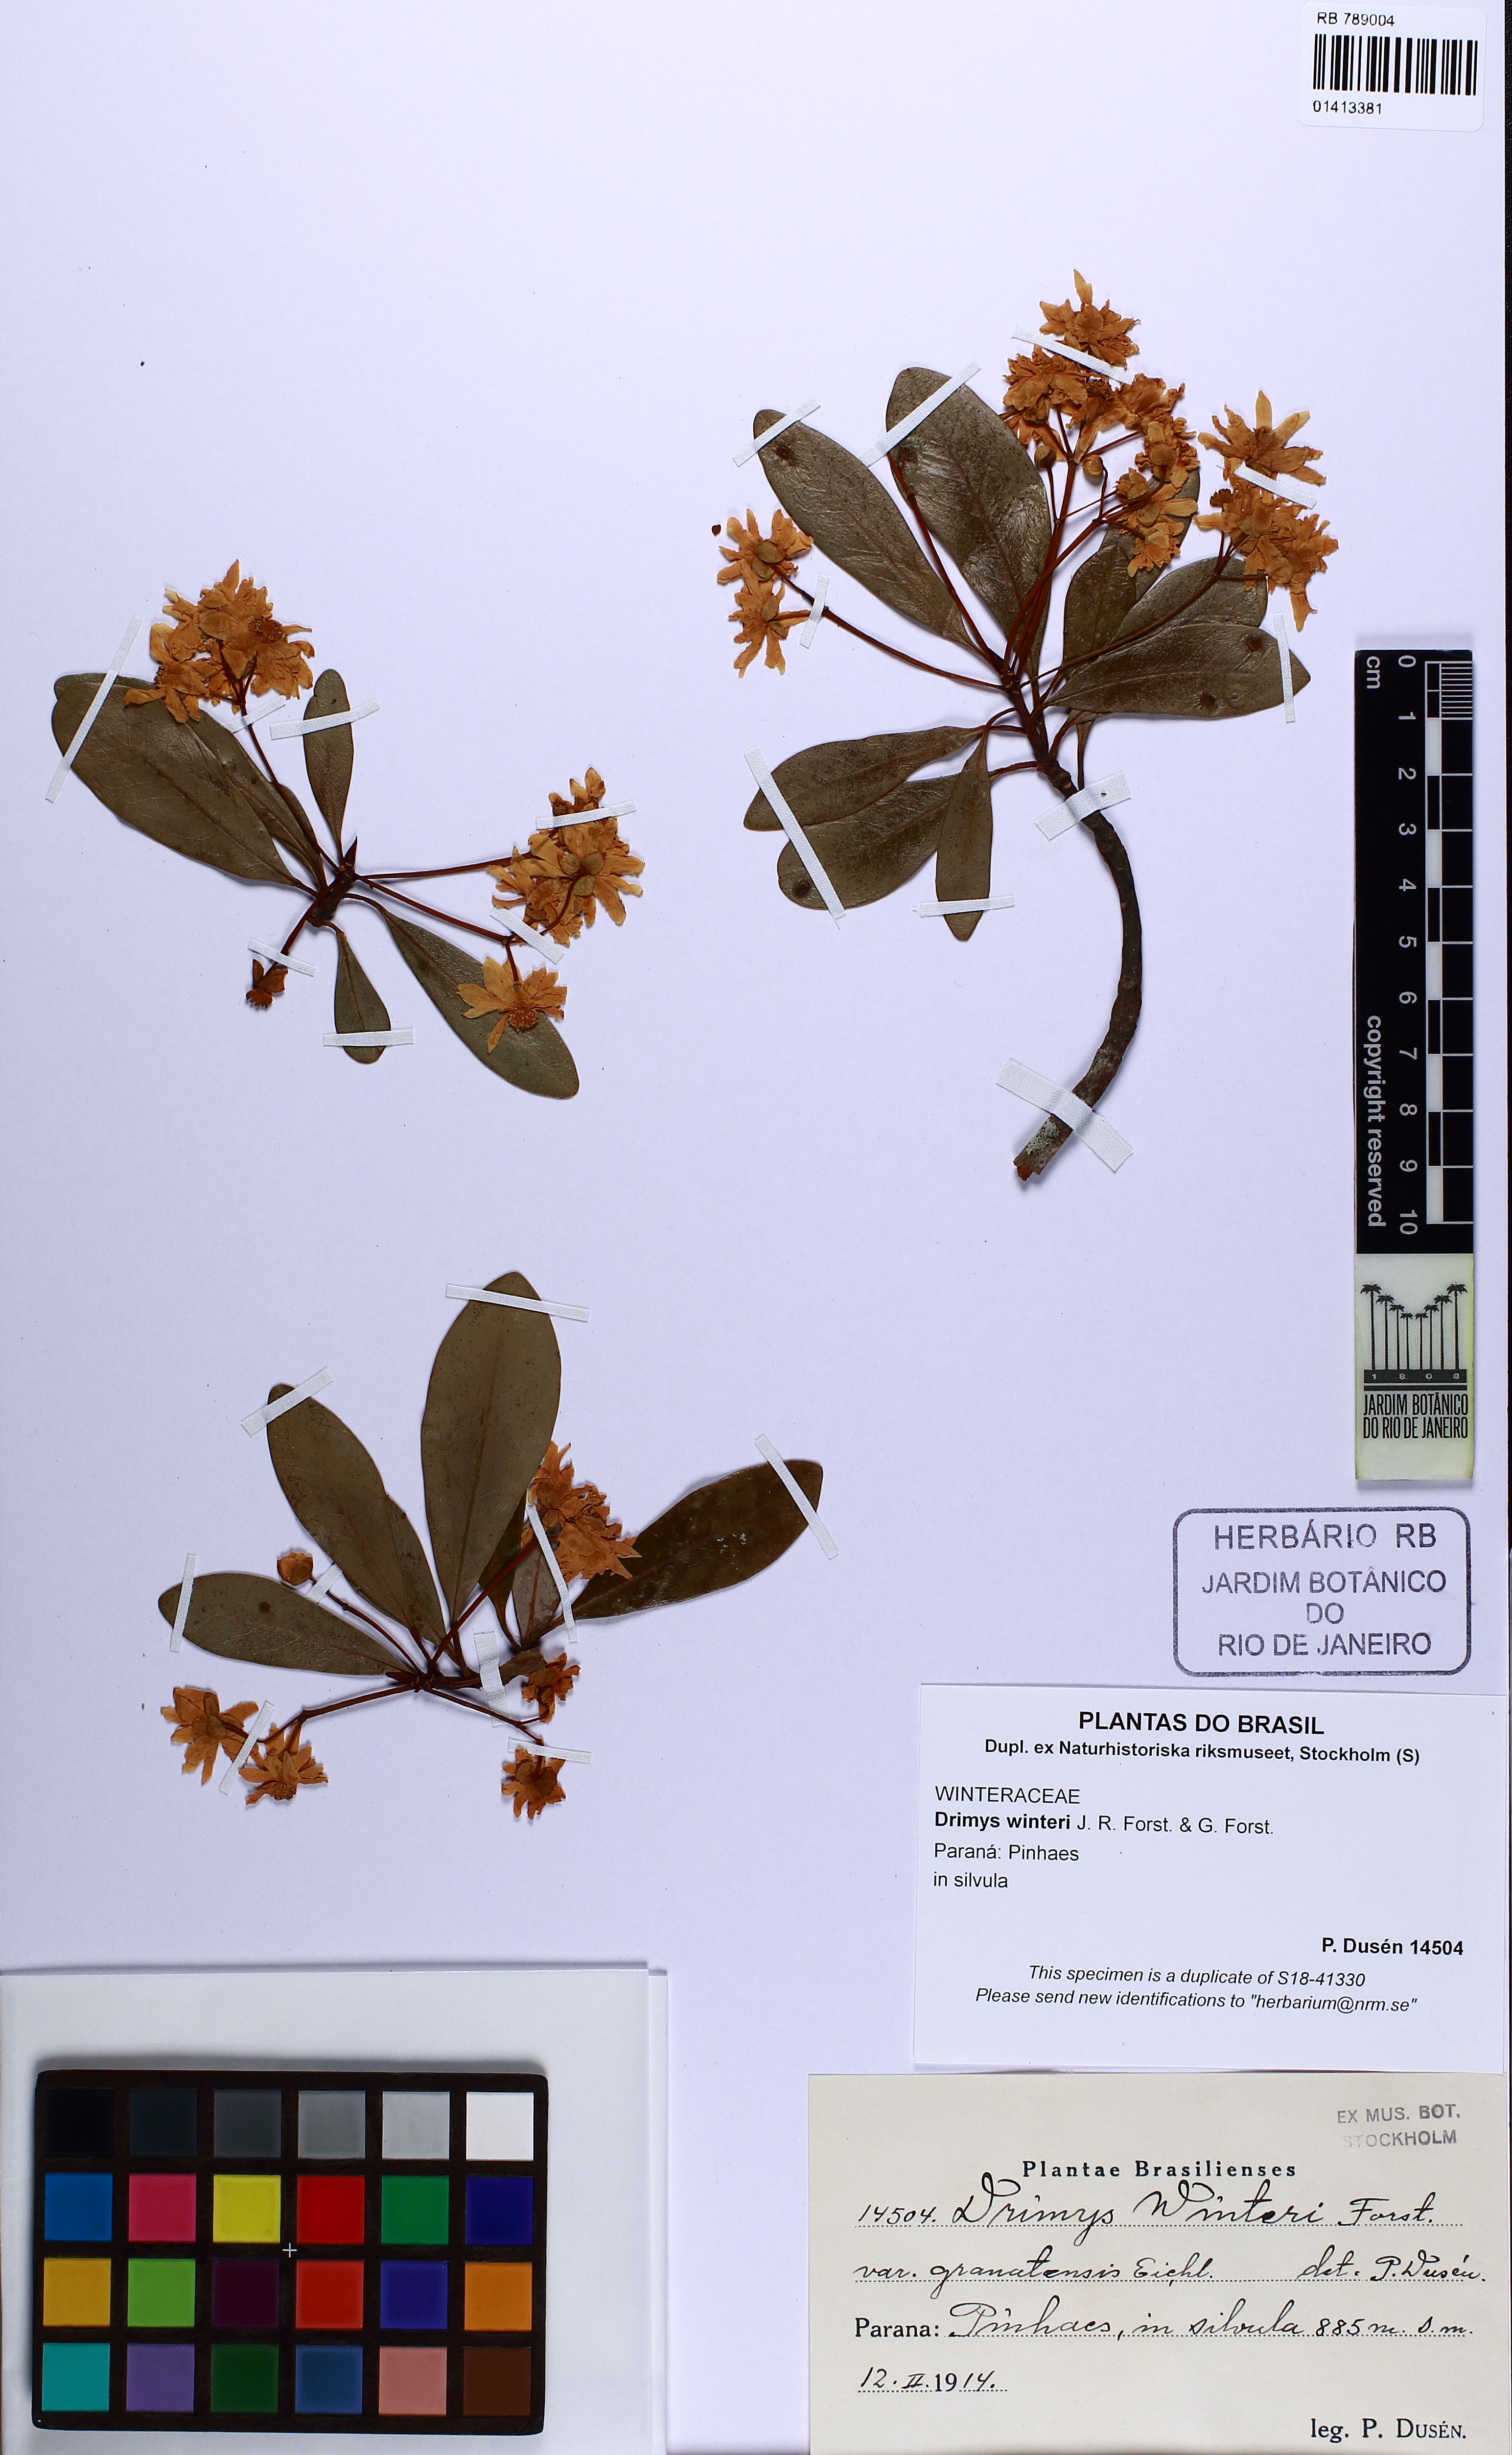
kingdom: Plantae
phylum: Tracheophyta
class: Magnoliopsida
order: Canellales
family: Winteraceae
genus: Drimys
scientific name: Drimys winteri
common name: Winter's-bark
